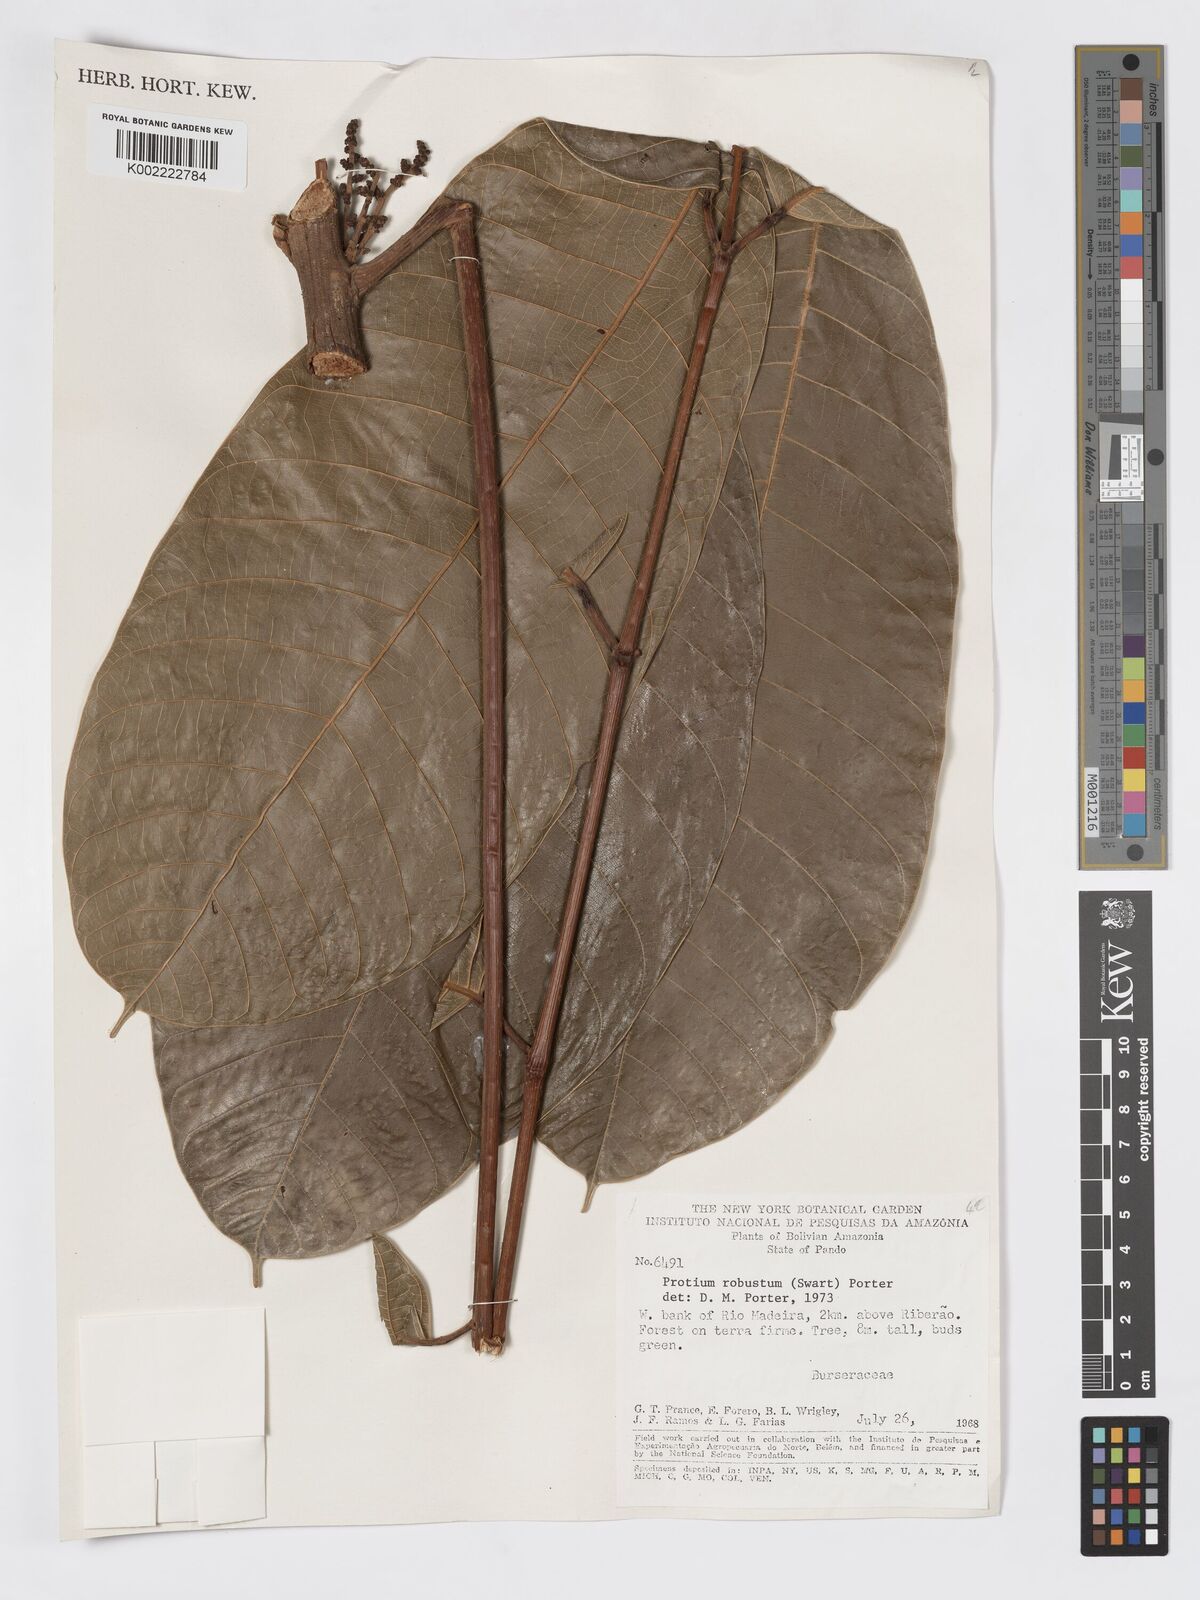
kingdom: Plantae
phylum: Tracheophyta
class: Magnoliopsida
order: Sapindales
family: Burseraceae
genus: Protium
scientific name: Protium robustum
